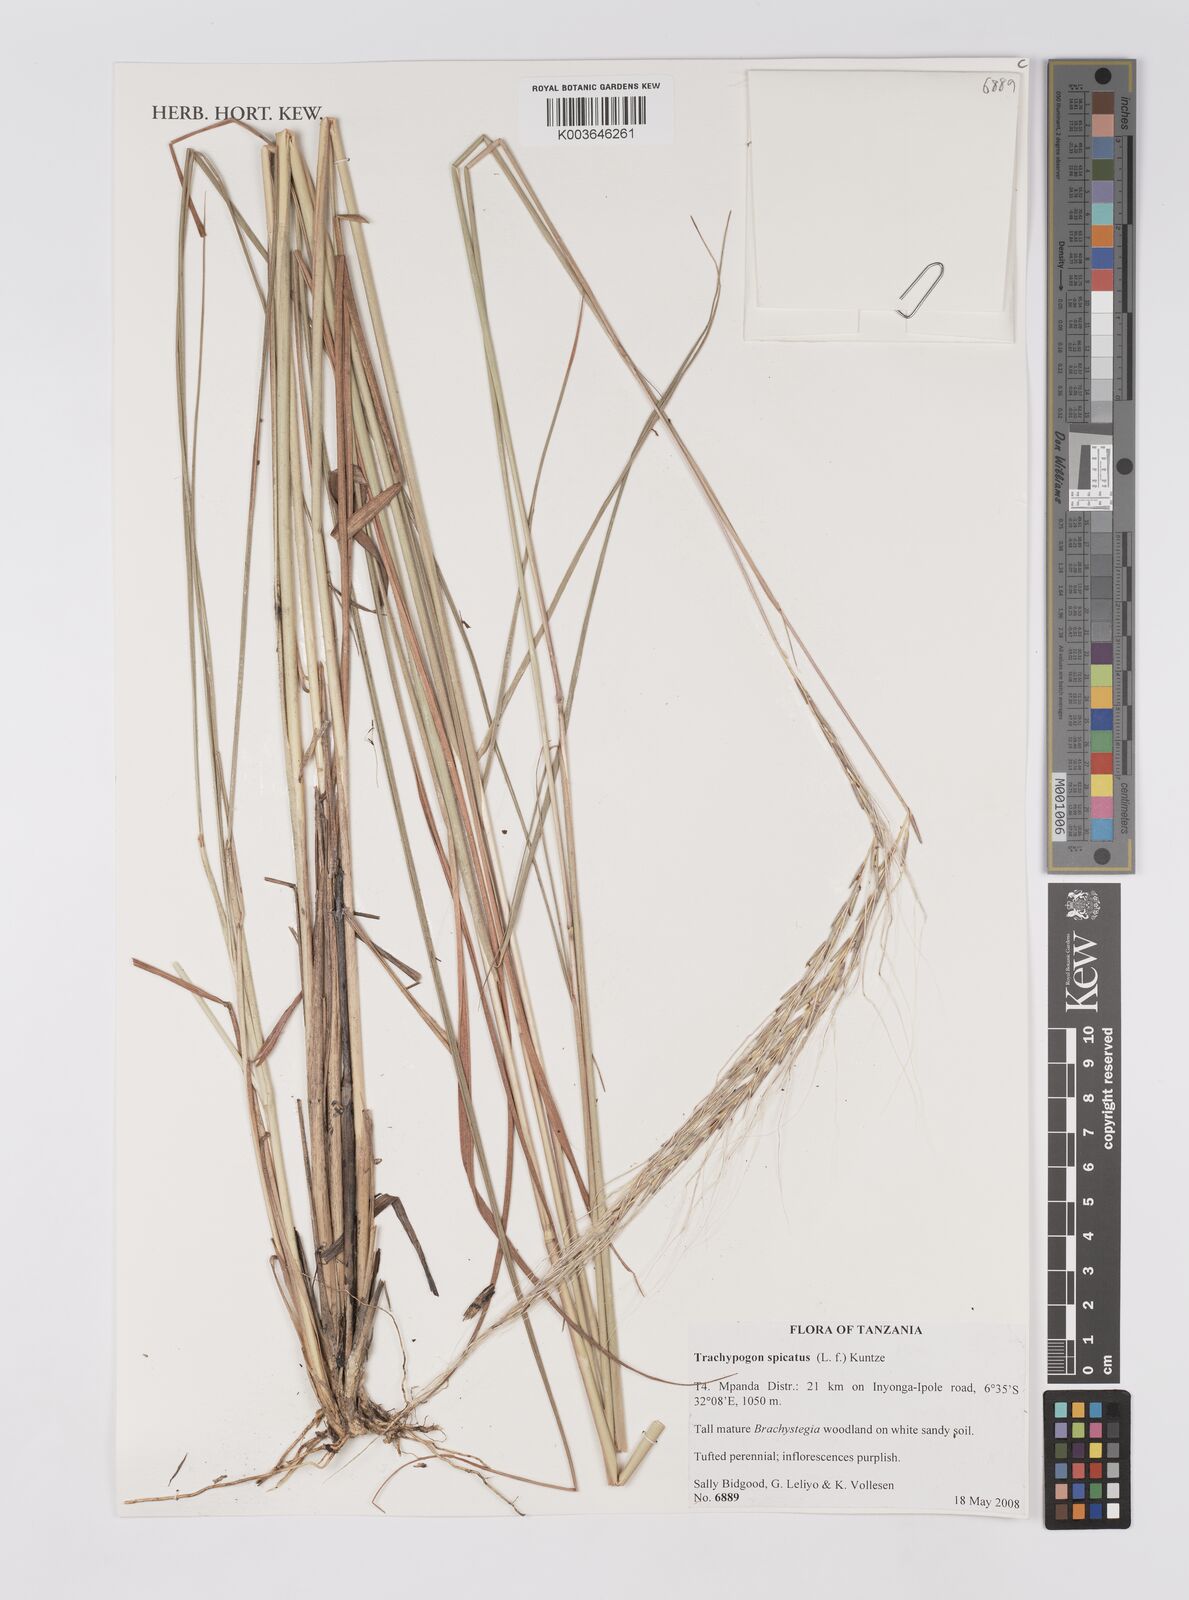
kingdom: Plantae
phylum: Tracheophyta
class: Liliopsida
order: Poales
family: Poaceae
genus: Trachypogon
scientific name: Trachypogon spicatus
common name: Crinkle-awn
